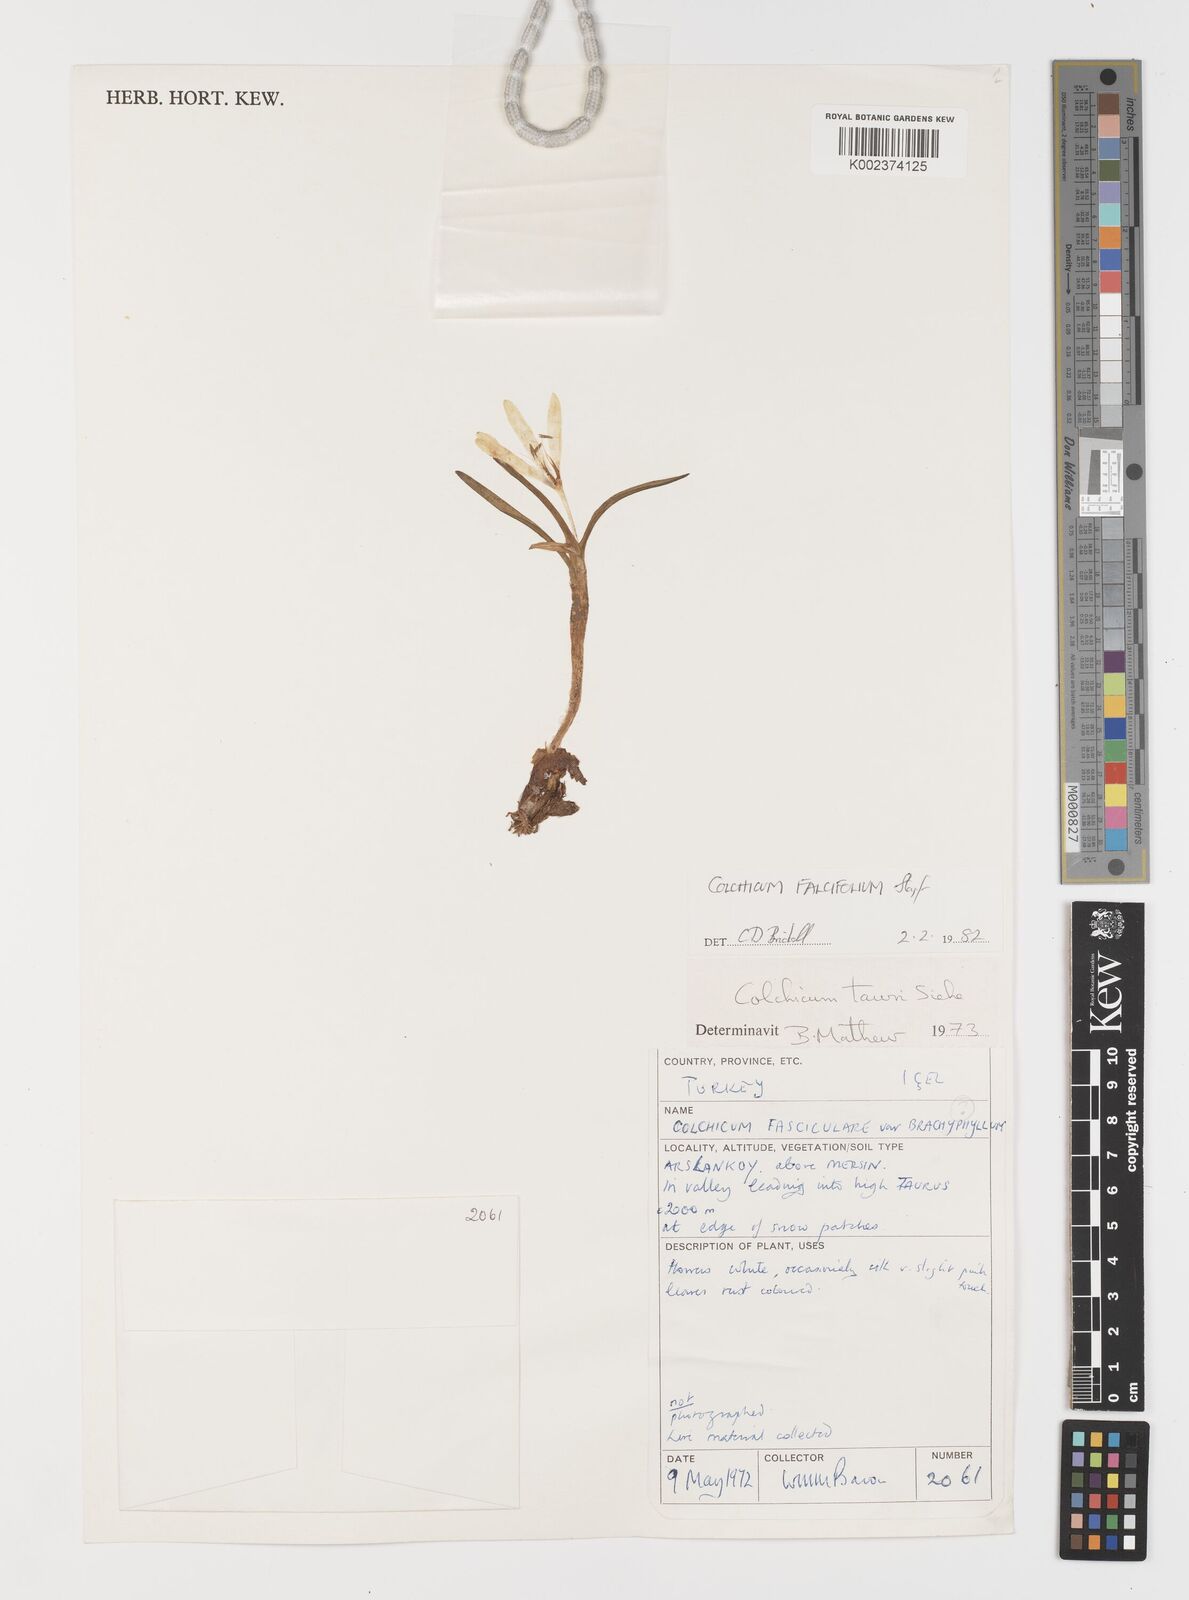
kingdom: Plantae
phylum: Tracheophyta
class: Liliopsida
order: Asparagales
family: Iridaceae
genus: Iris
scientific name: Iris caucasica
